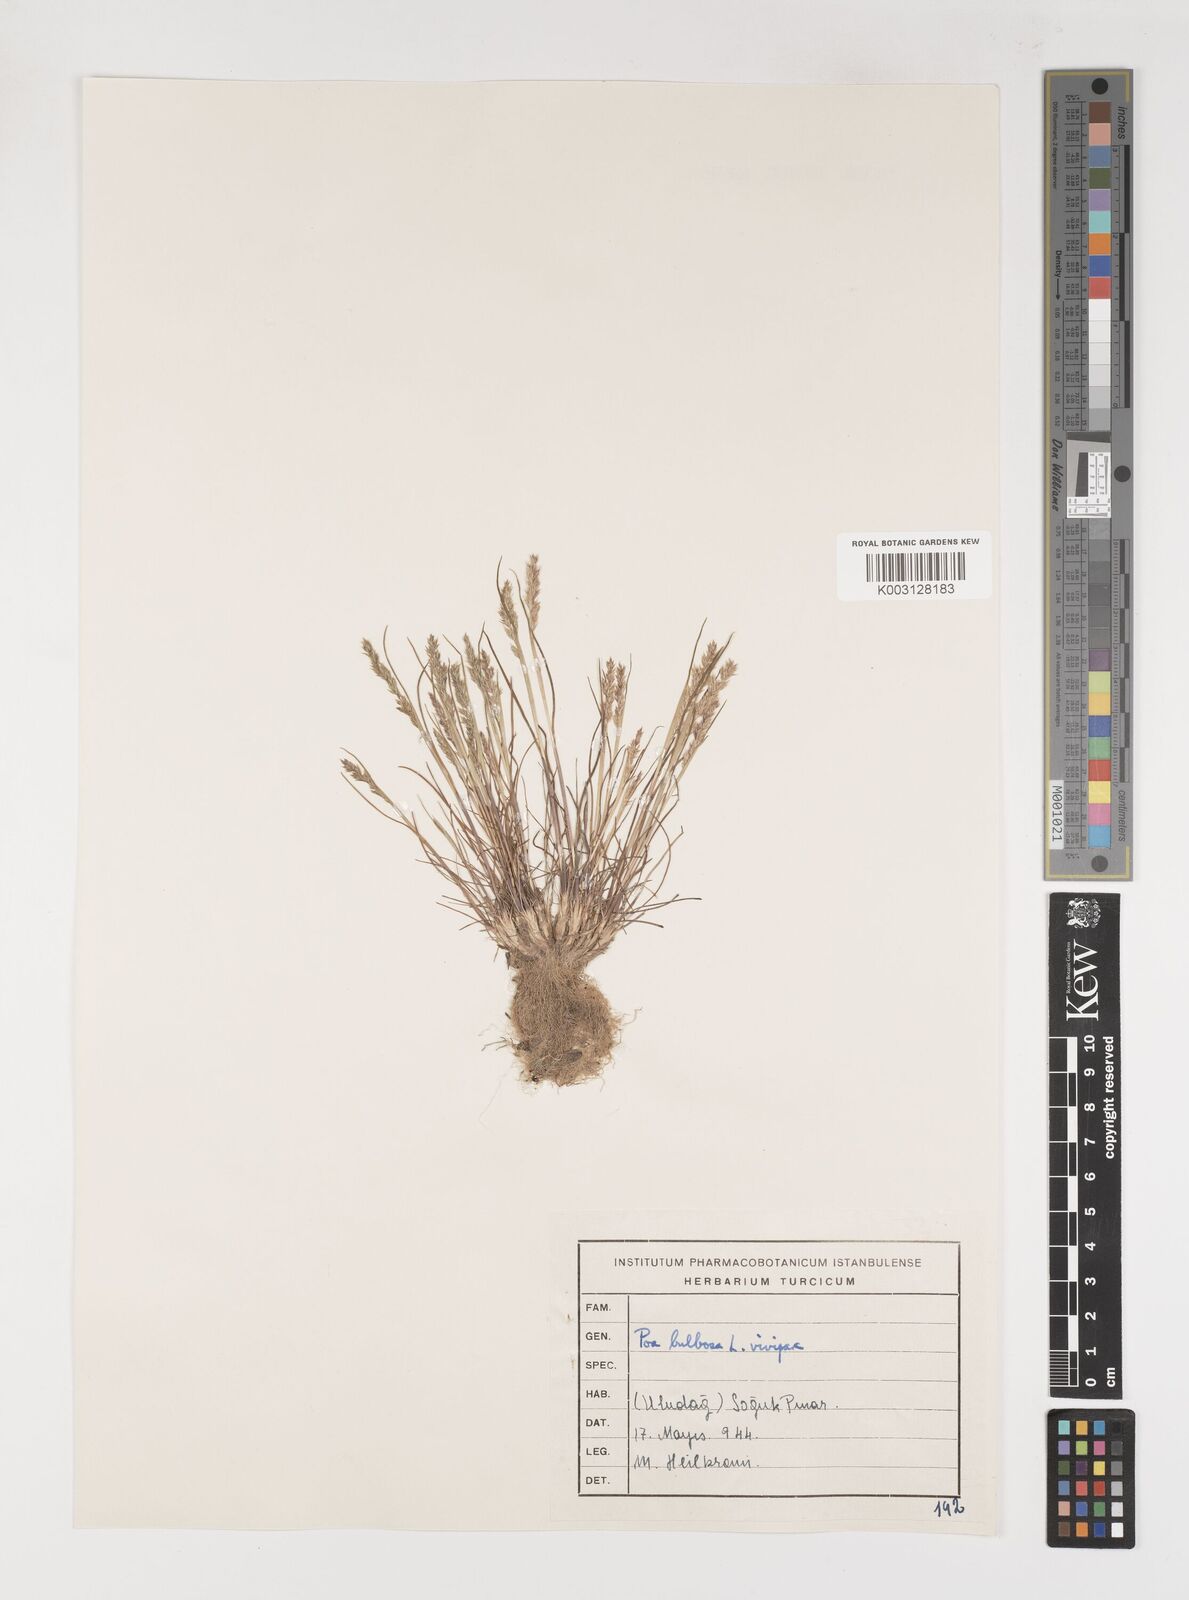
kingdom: Plantae
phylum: Tracheophyta
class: Liliopsida
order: Poales
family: Poaceae
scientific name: Poaceae
